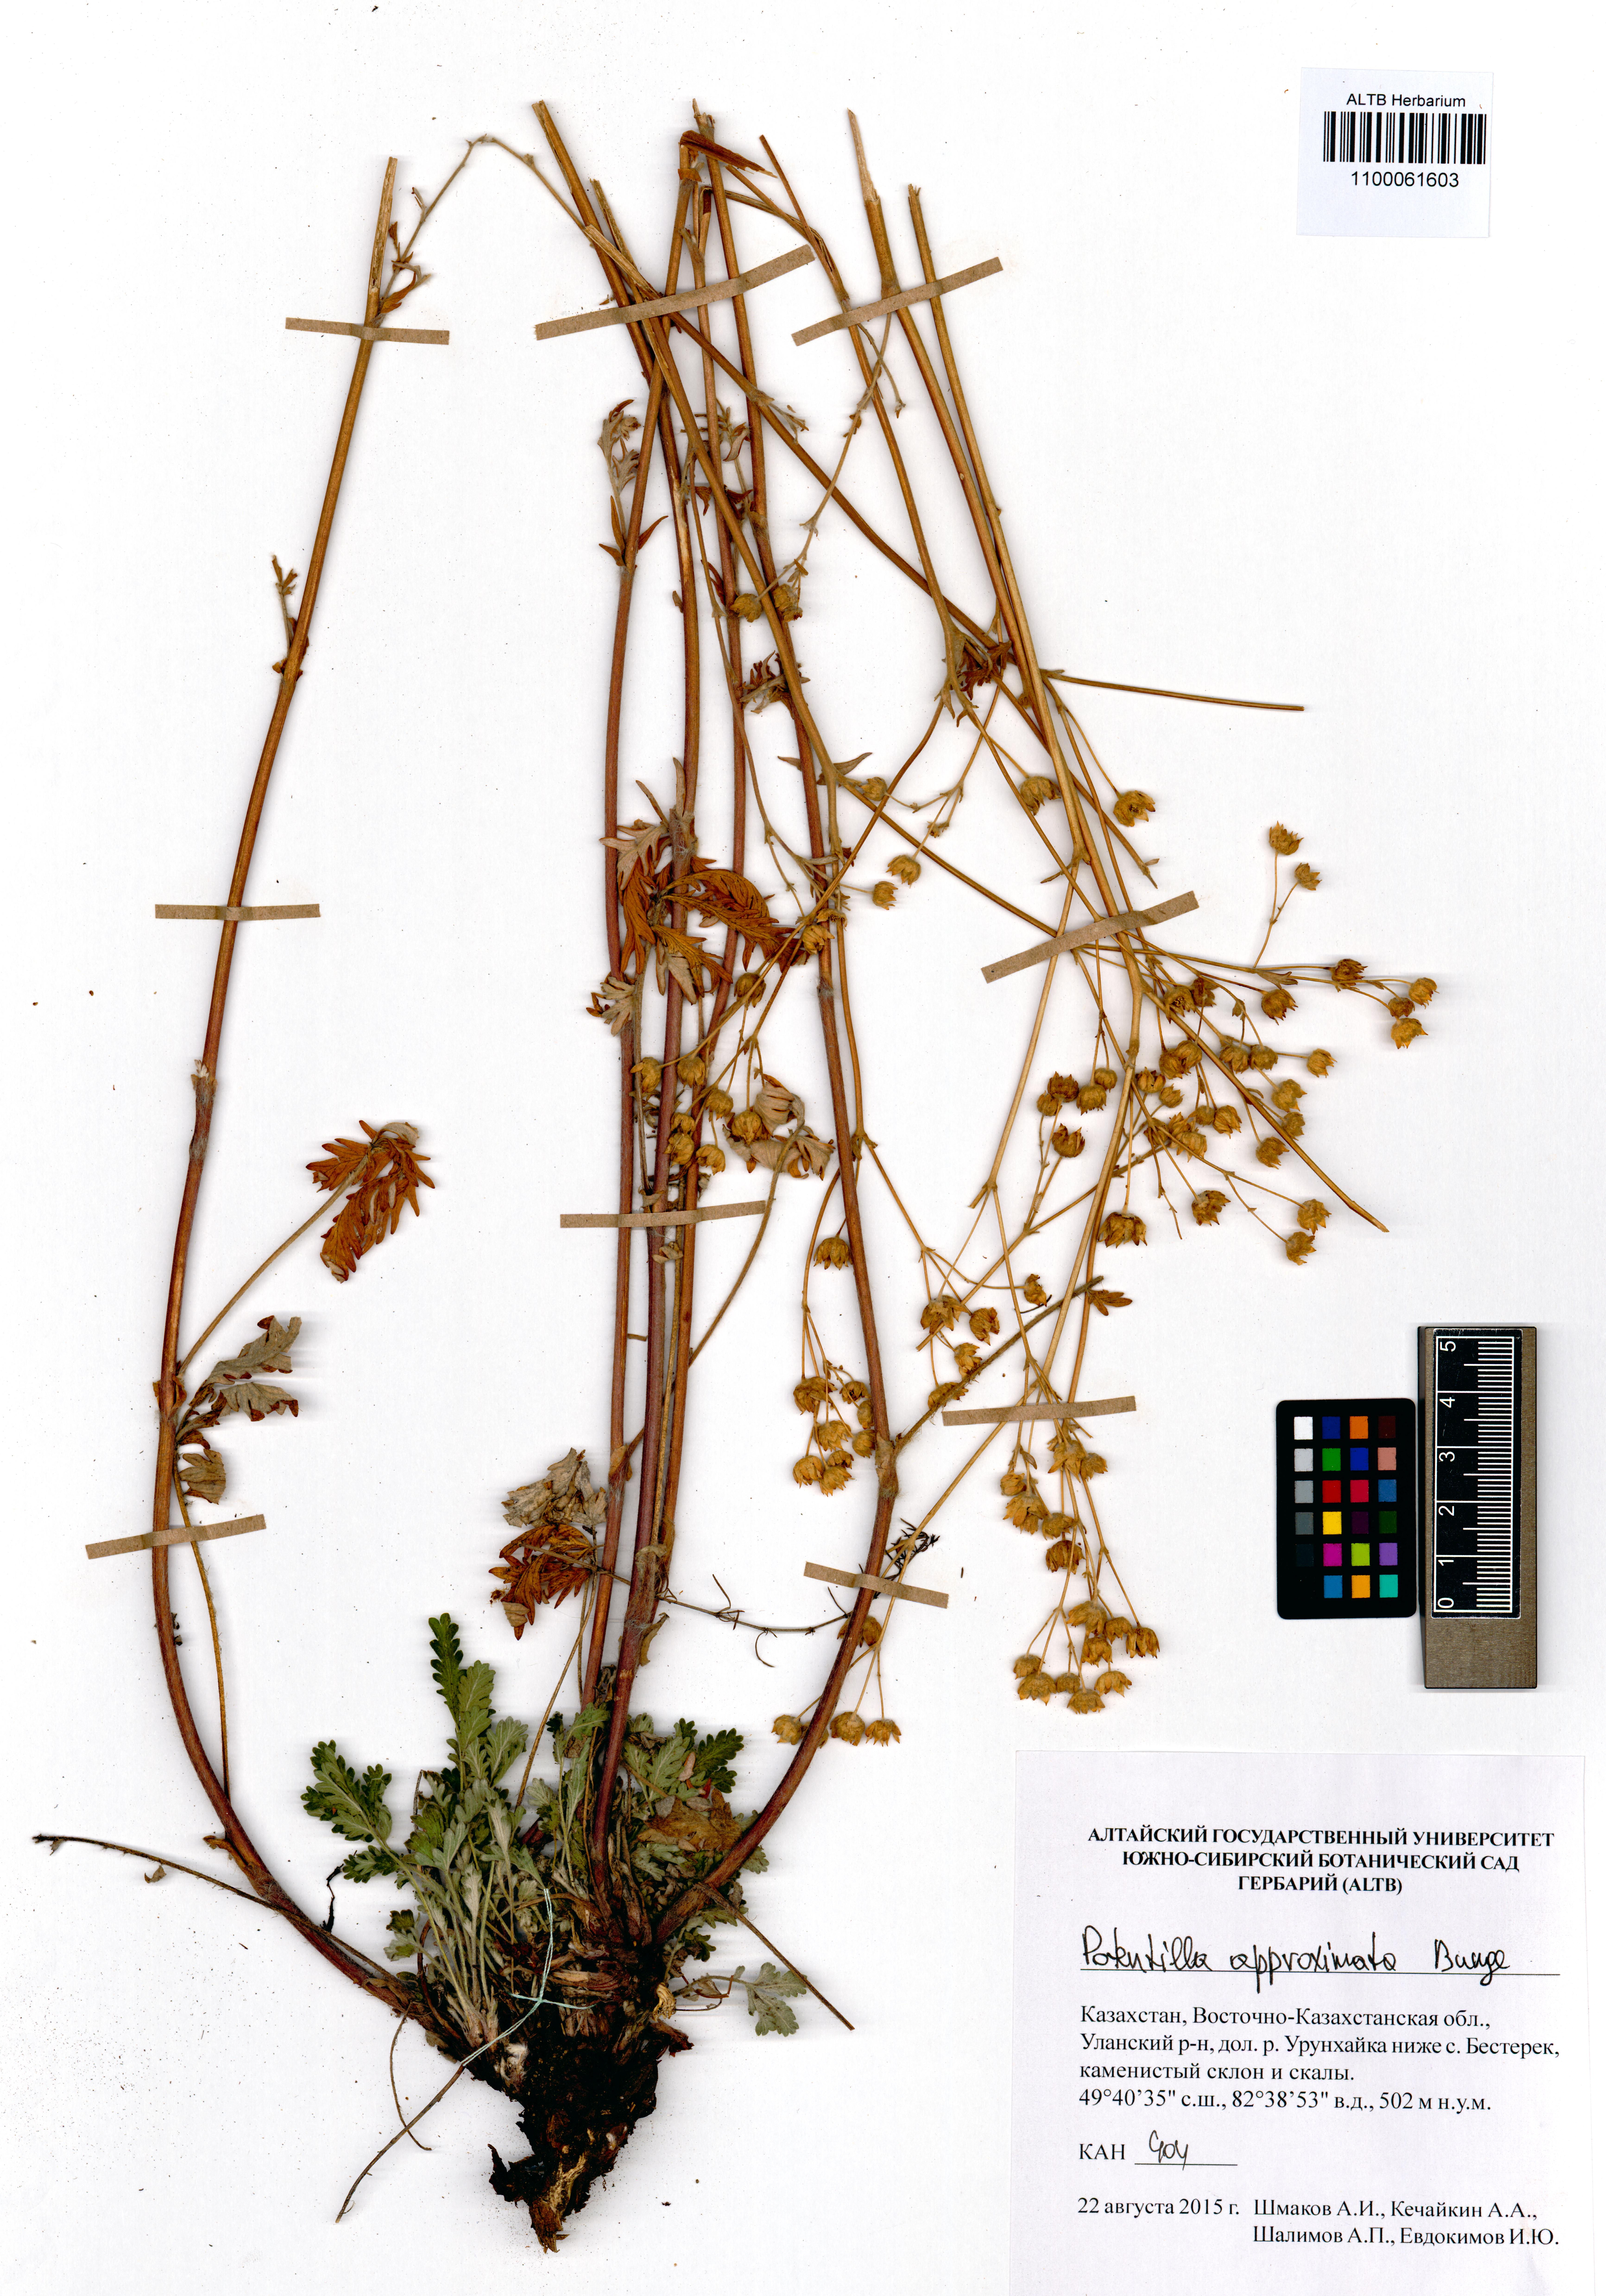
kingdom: Plantae
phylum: Tracheophyta
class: Magnoliopsida
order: Rosales
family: Rosaceae
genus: Potentilla
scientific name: Potentilla conferta
